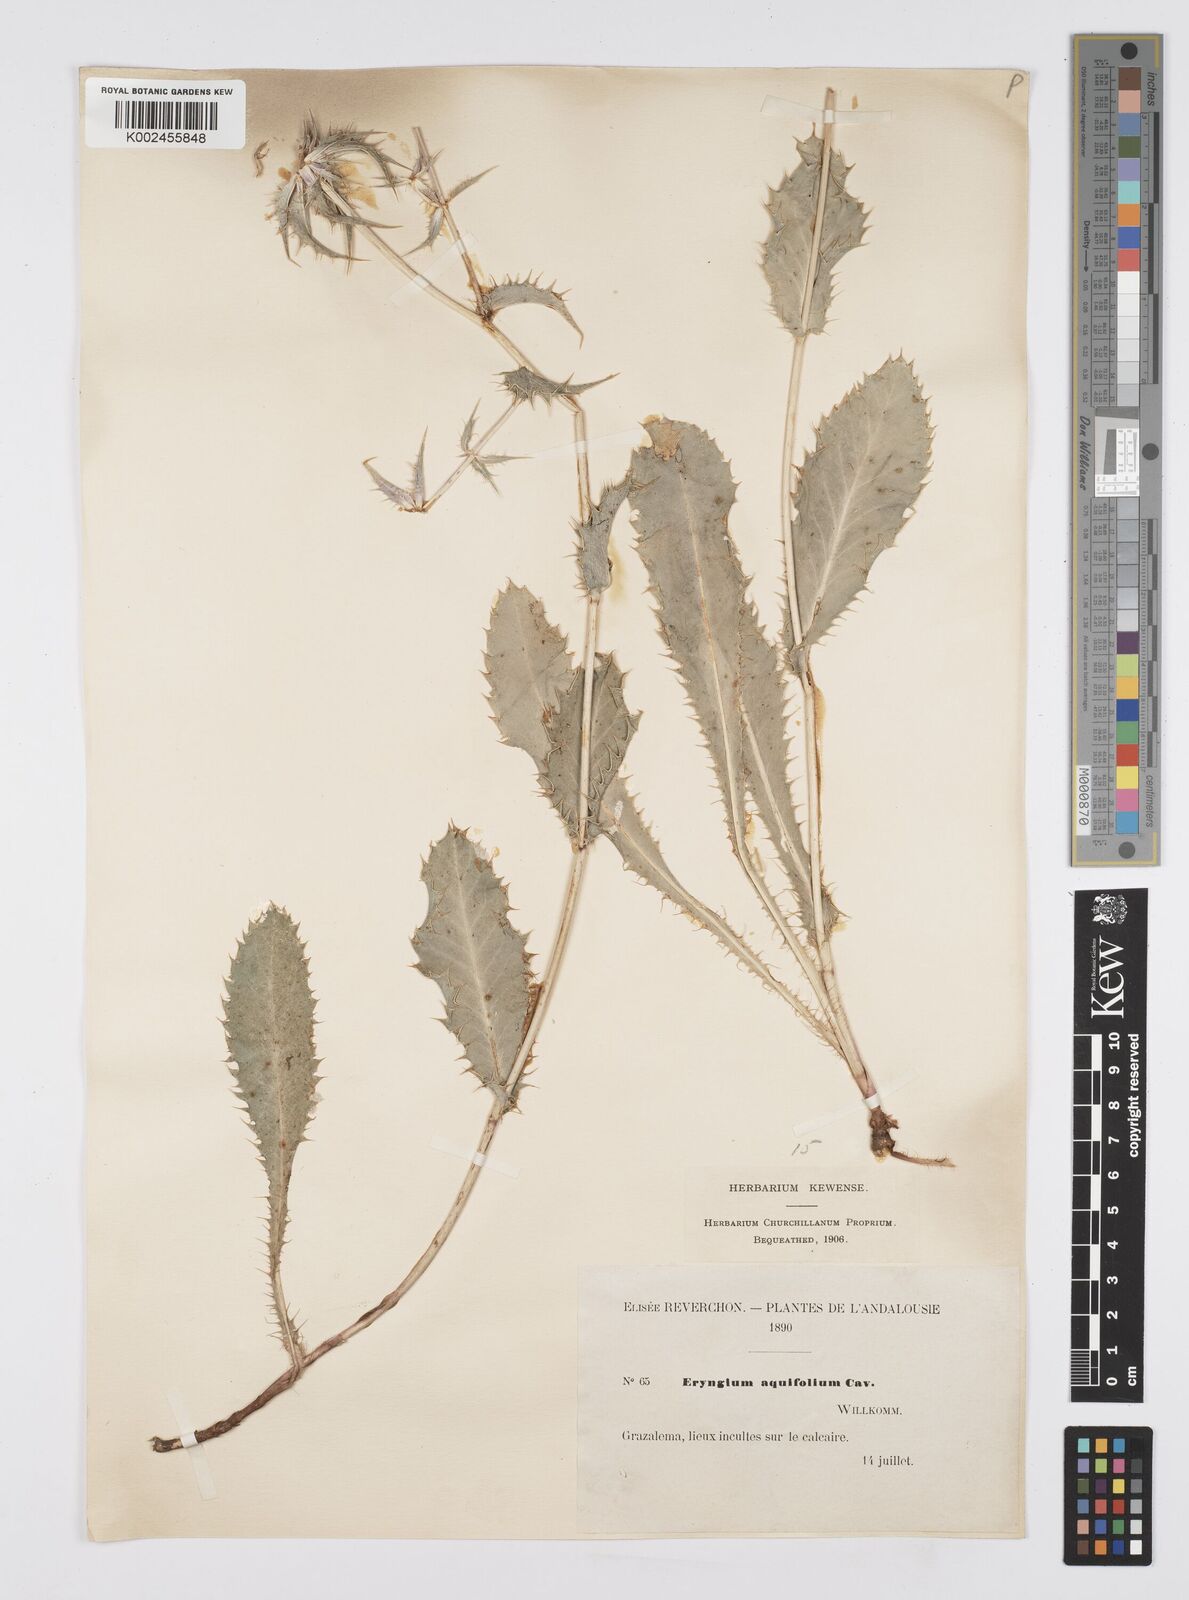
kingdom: Plantae
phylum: Tracheophyta
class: Magnoliopsida
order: Apiales
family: Apiaceae
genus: Eryngium
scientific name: Eryngium aquifolium
